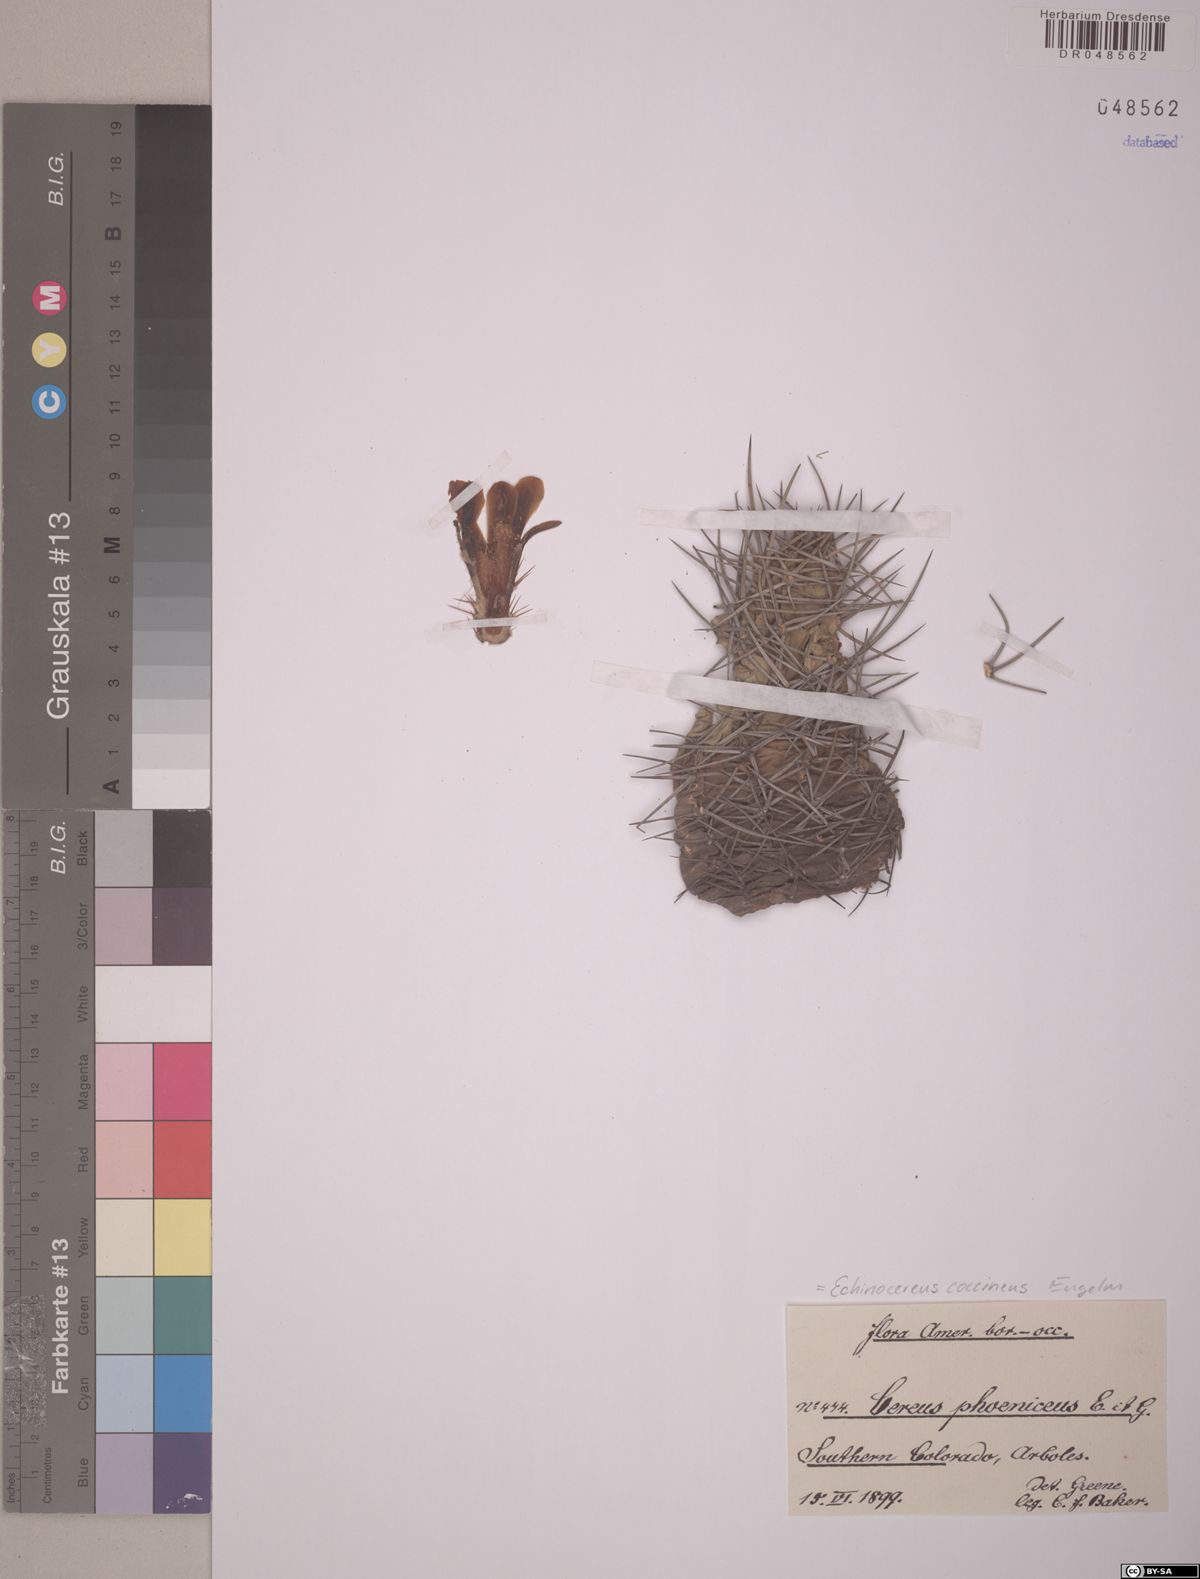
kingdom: Plantae
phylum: Tracheophyta
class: Magnoliopsida
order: Caryophyllales
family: Cactaceae
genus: Echinocereus
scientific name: Echinocereus coccineus
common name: Scarlet hedgehog cactus
